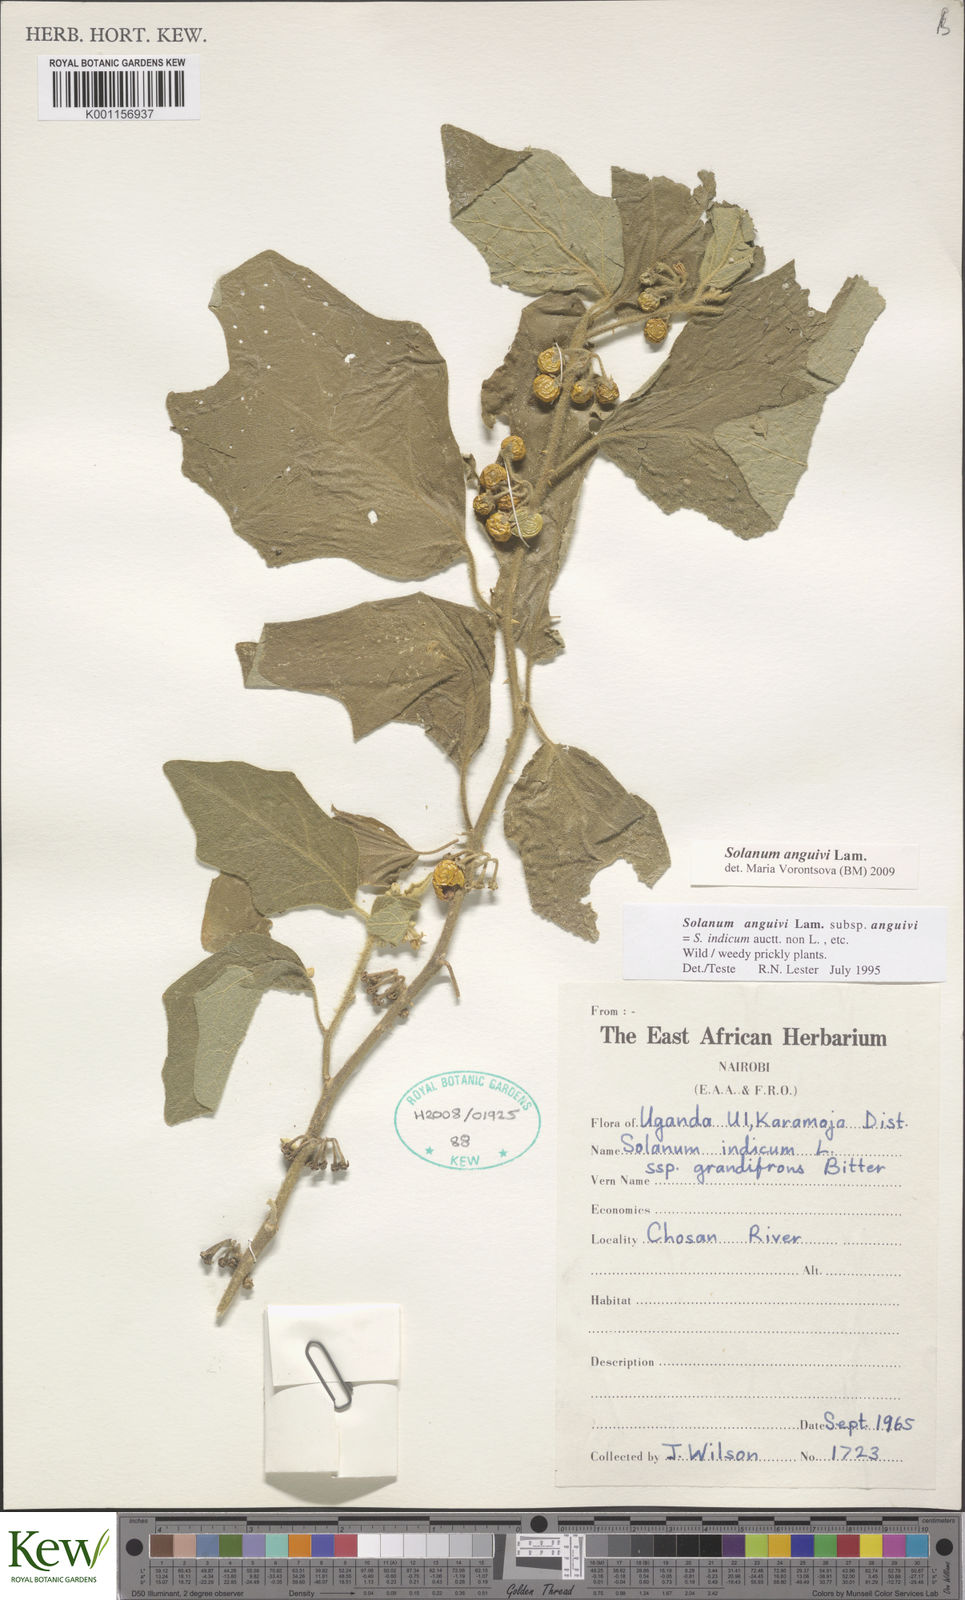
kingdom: Plantae
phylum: Tracheophyta
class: Magnoliopsida
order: Solanales
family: Solanaceae
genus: Solanum
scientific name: Solanum anguivi
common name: Forest bitterberry
